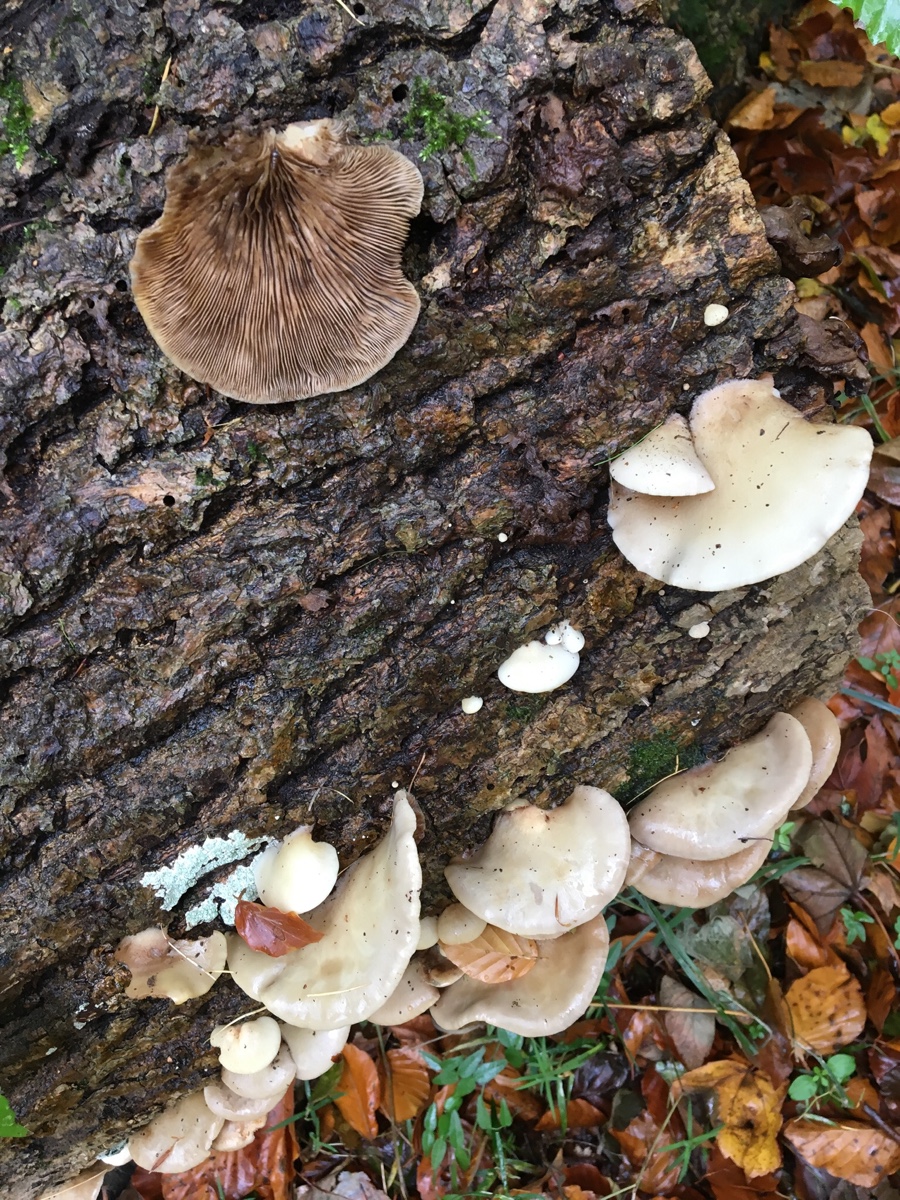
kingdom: Fungi
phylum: Basidiomycota
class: Agaricomycetes
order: Agaricales
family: Crepidotaceae
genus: Crepidotus
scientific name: Crepidotus mollis
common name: blød muslingesvamp
